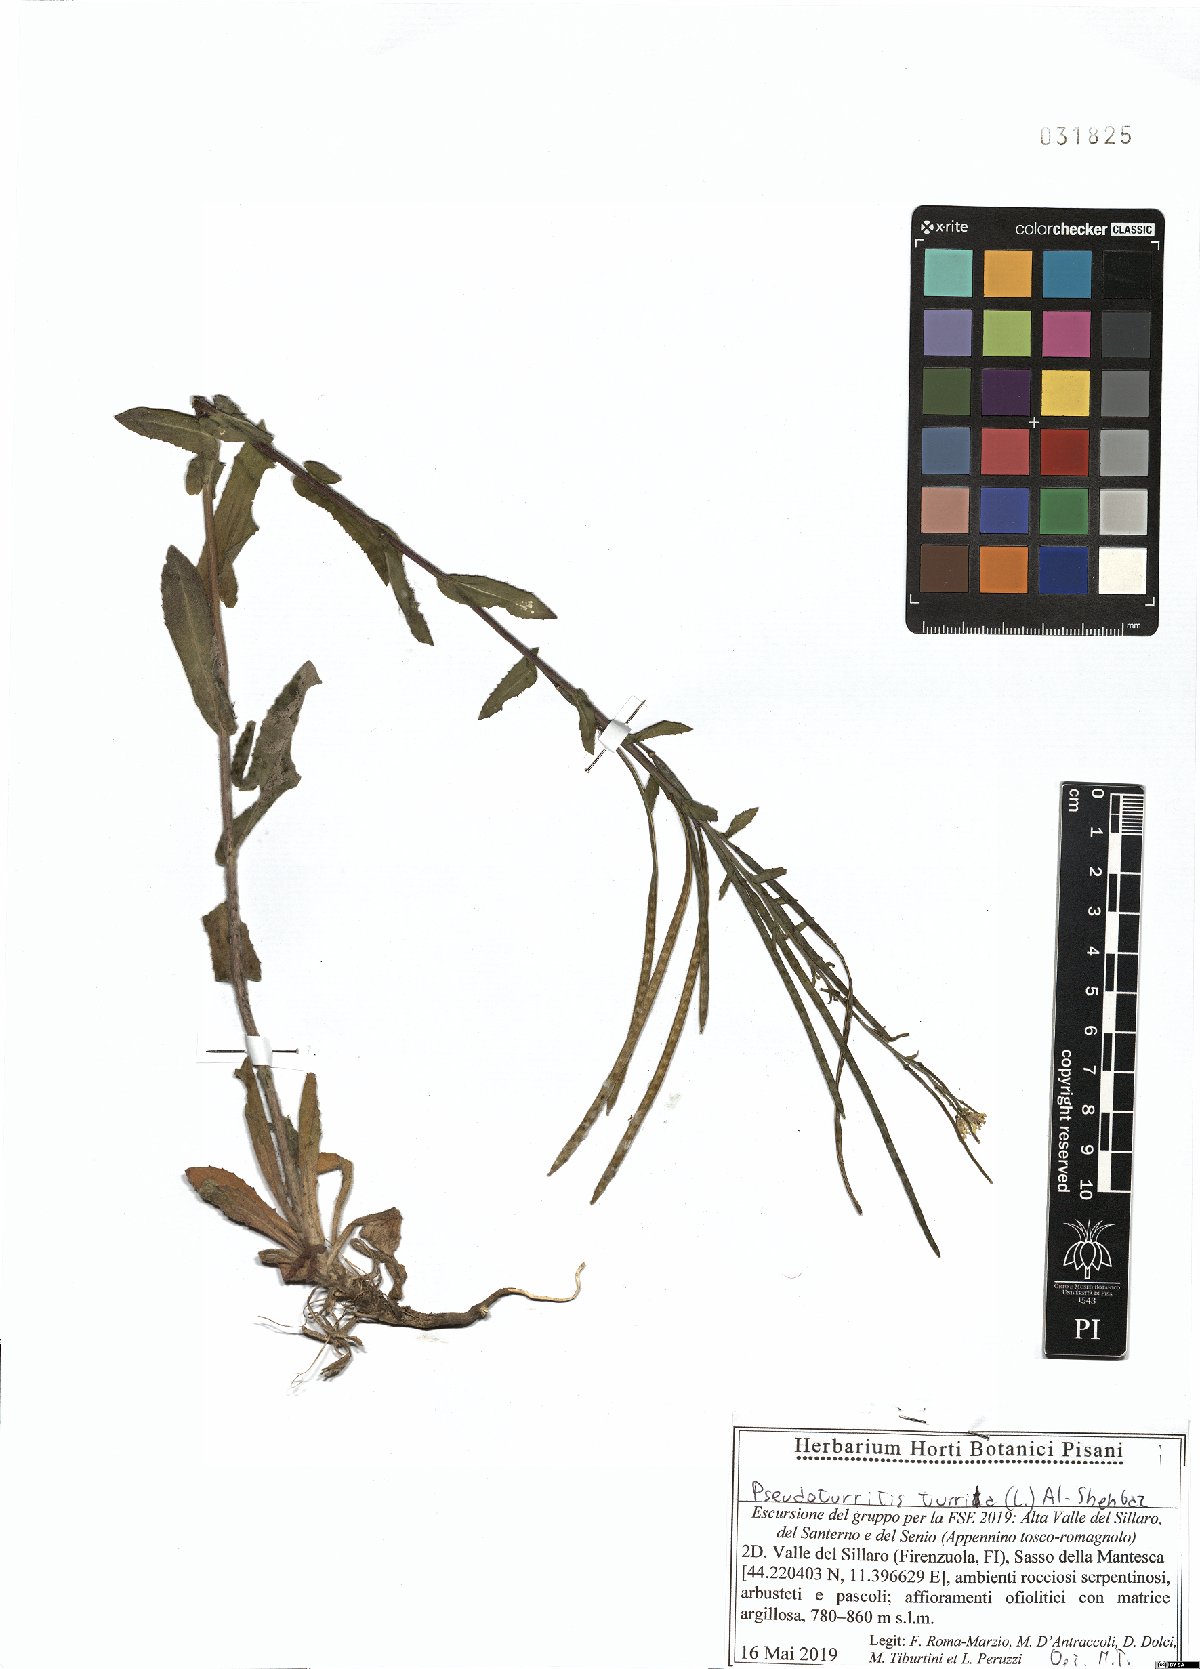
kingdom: Plantae
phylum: Tracheophyta
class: Magnoliopsida
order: Brassicales
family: Brassicaceae
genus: Pseudoturritis
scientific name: Pseudoturritis turrita
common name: Tower cress
